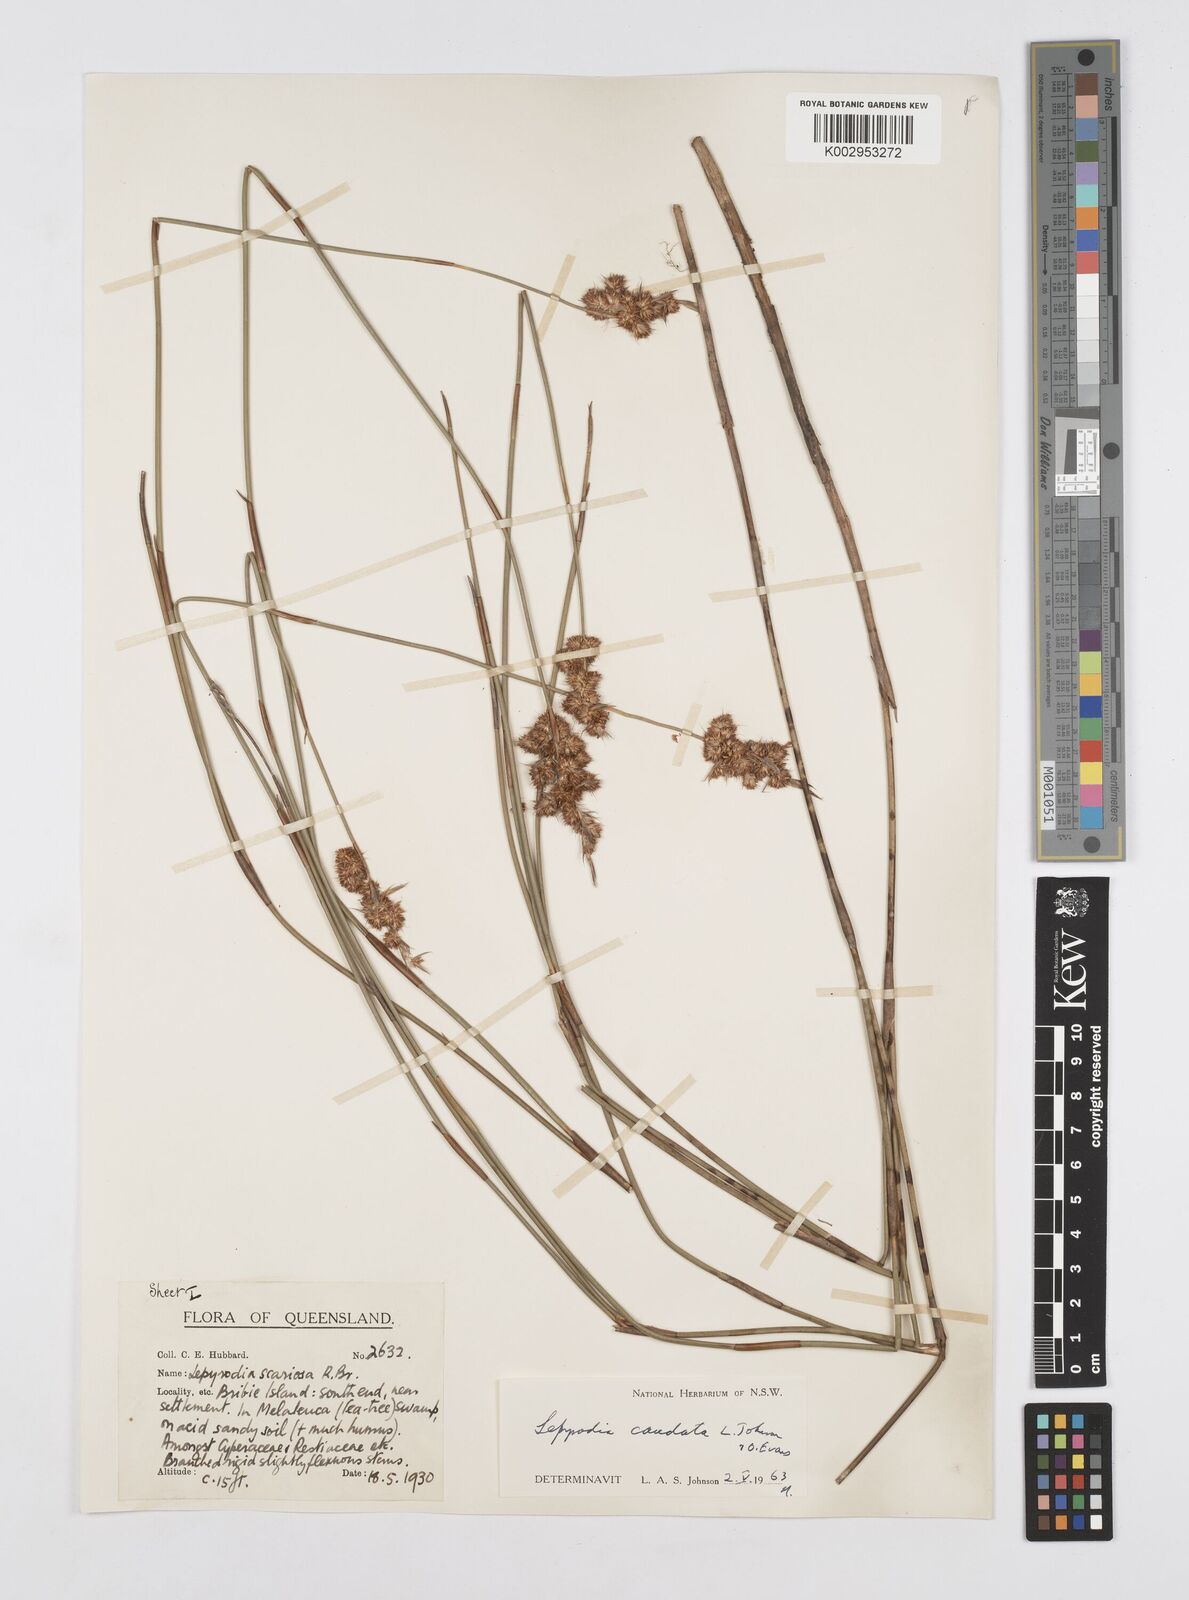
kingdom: Plantae
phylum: Tracheophyta
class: Liliopsida
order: Poales
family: Restionaceae
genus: Sporadanthus
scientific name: Sporadanthus caudatus
